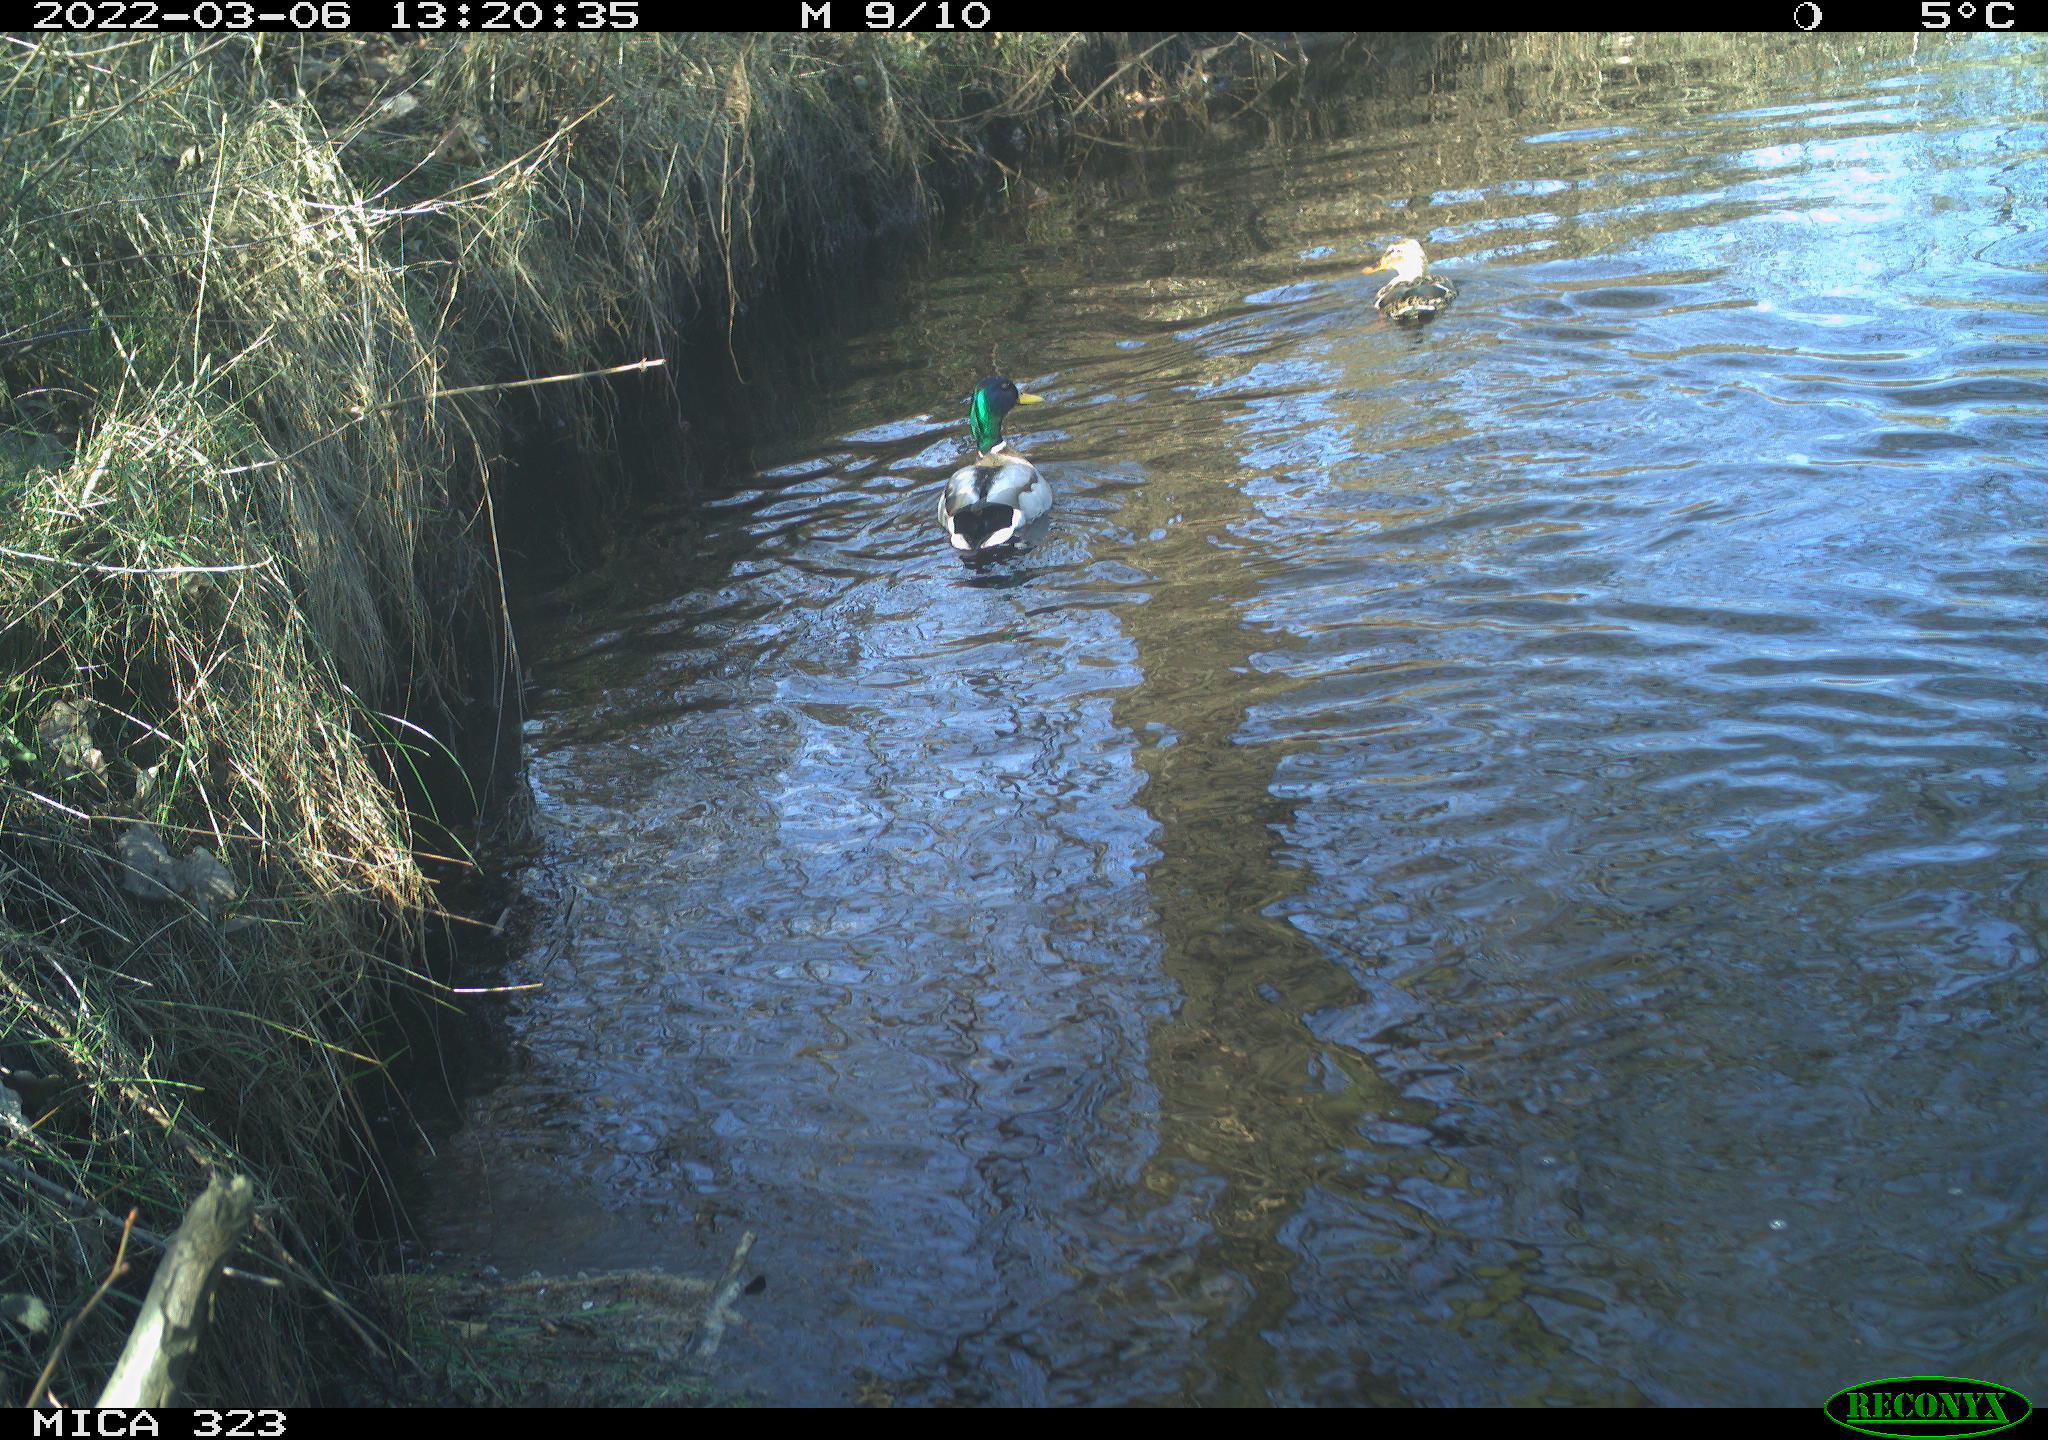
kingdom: Animalia
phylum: Chordata
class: Aves
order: Anseriformes
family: Anatidae
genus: Anas
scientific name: Anas platyrhynchos
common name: Mallard
